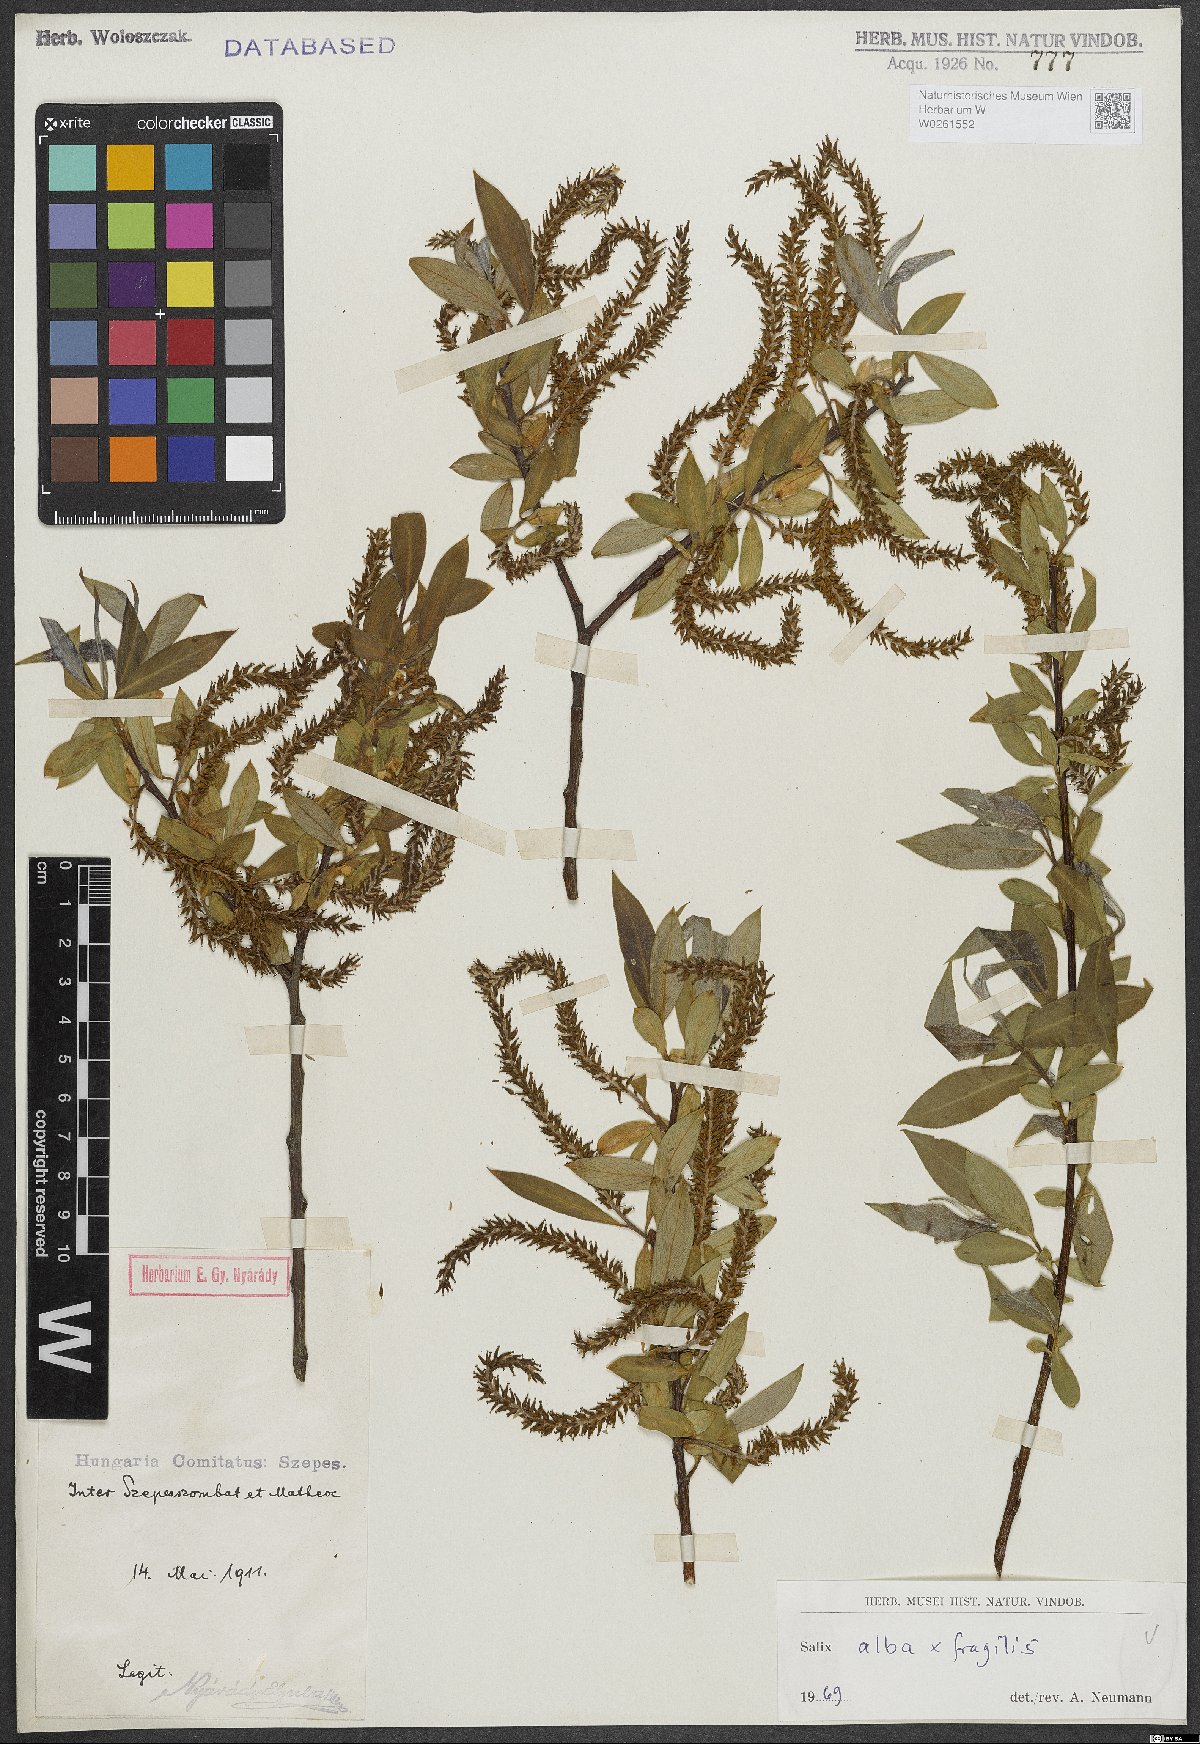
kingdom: Plantae
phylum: Tracheophyta
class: Magnoliopsida
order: Malpighiales
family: Salicaceae
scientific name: Salicaceae
